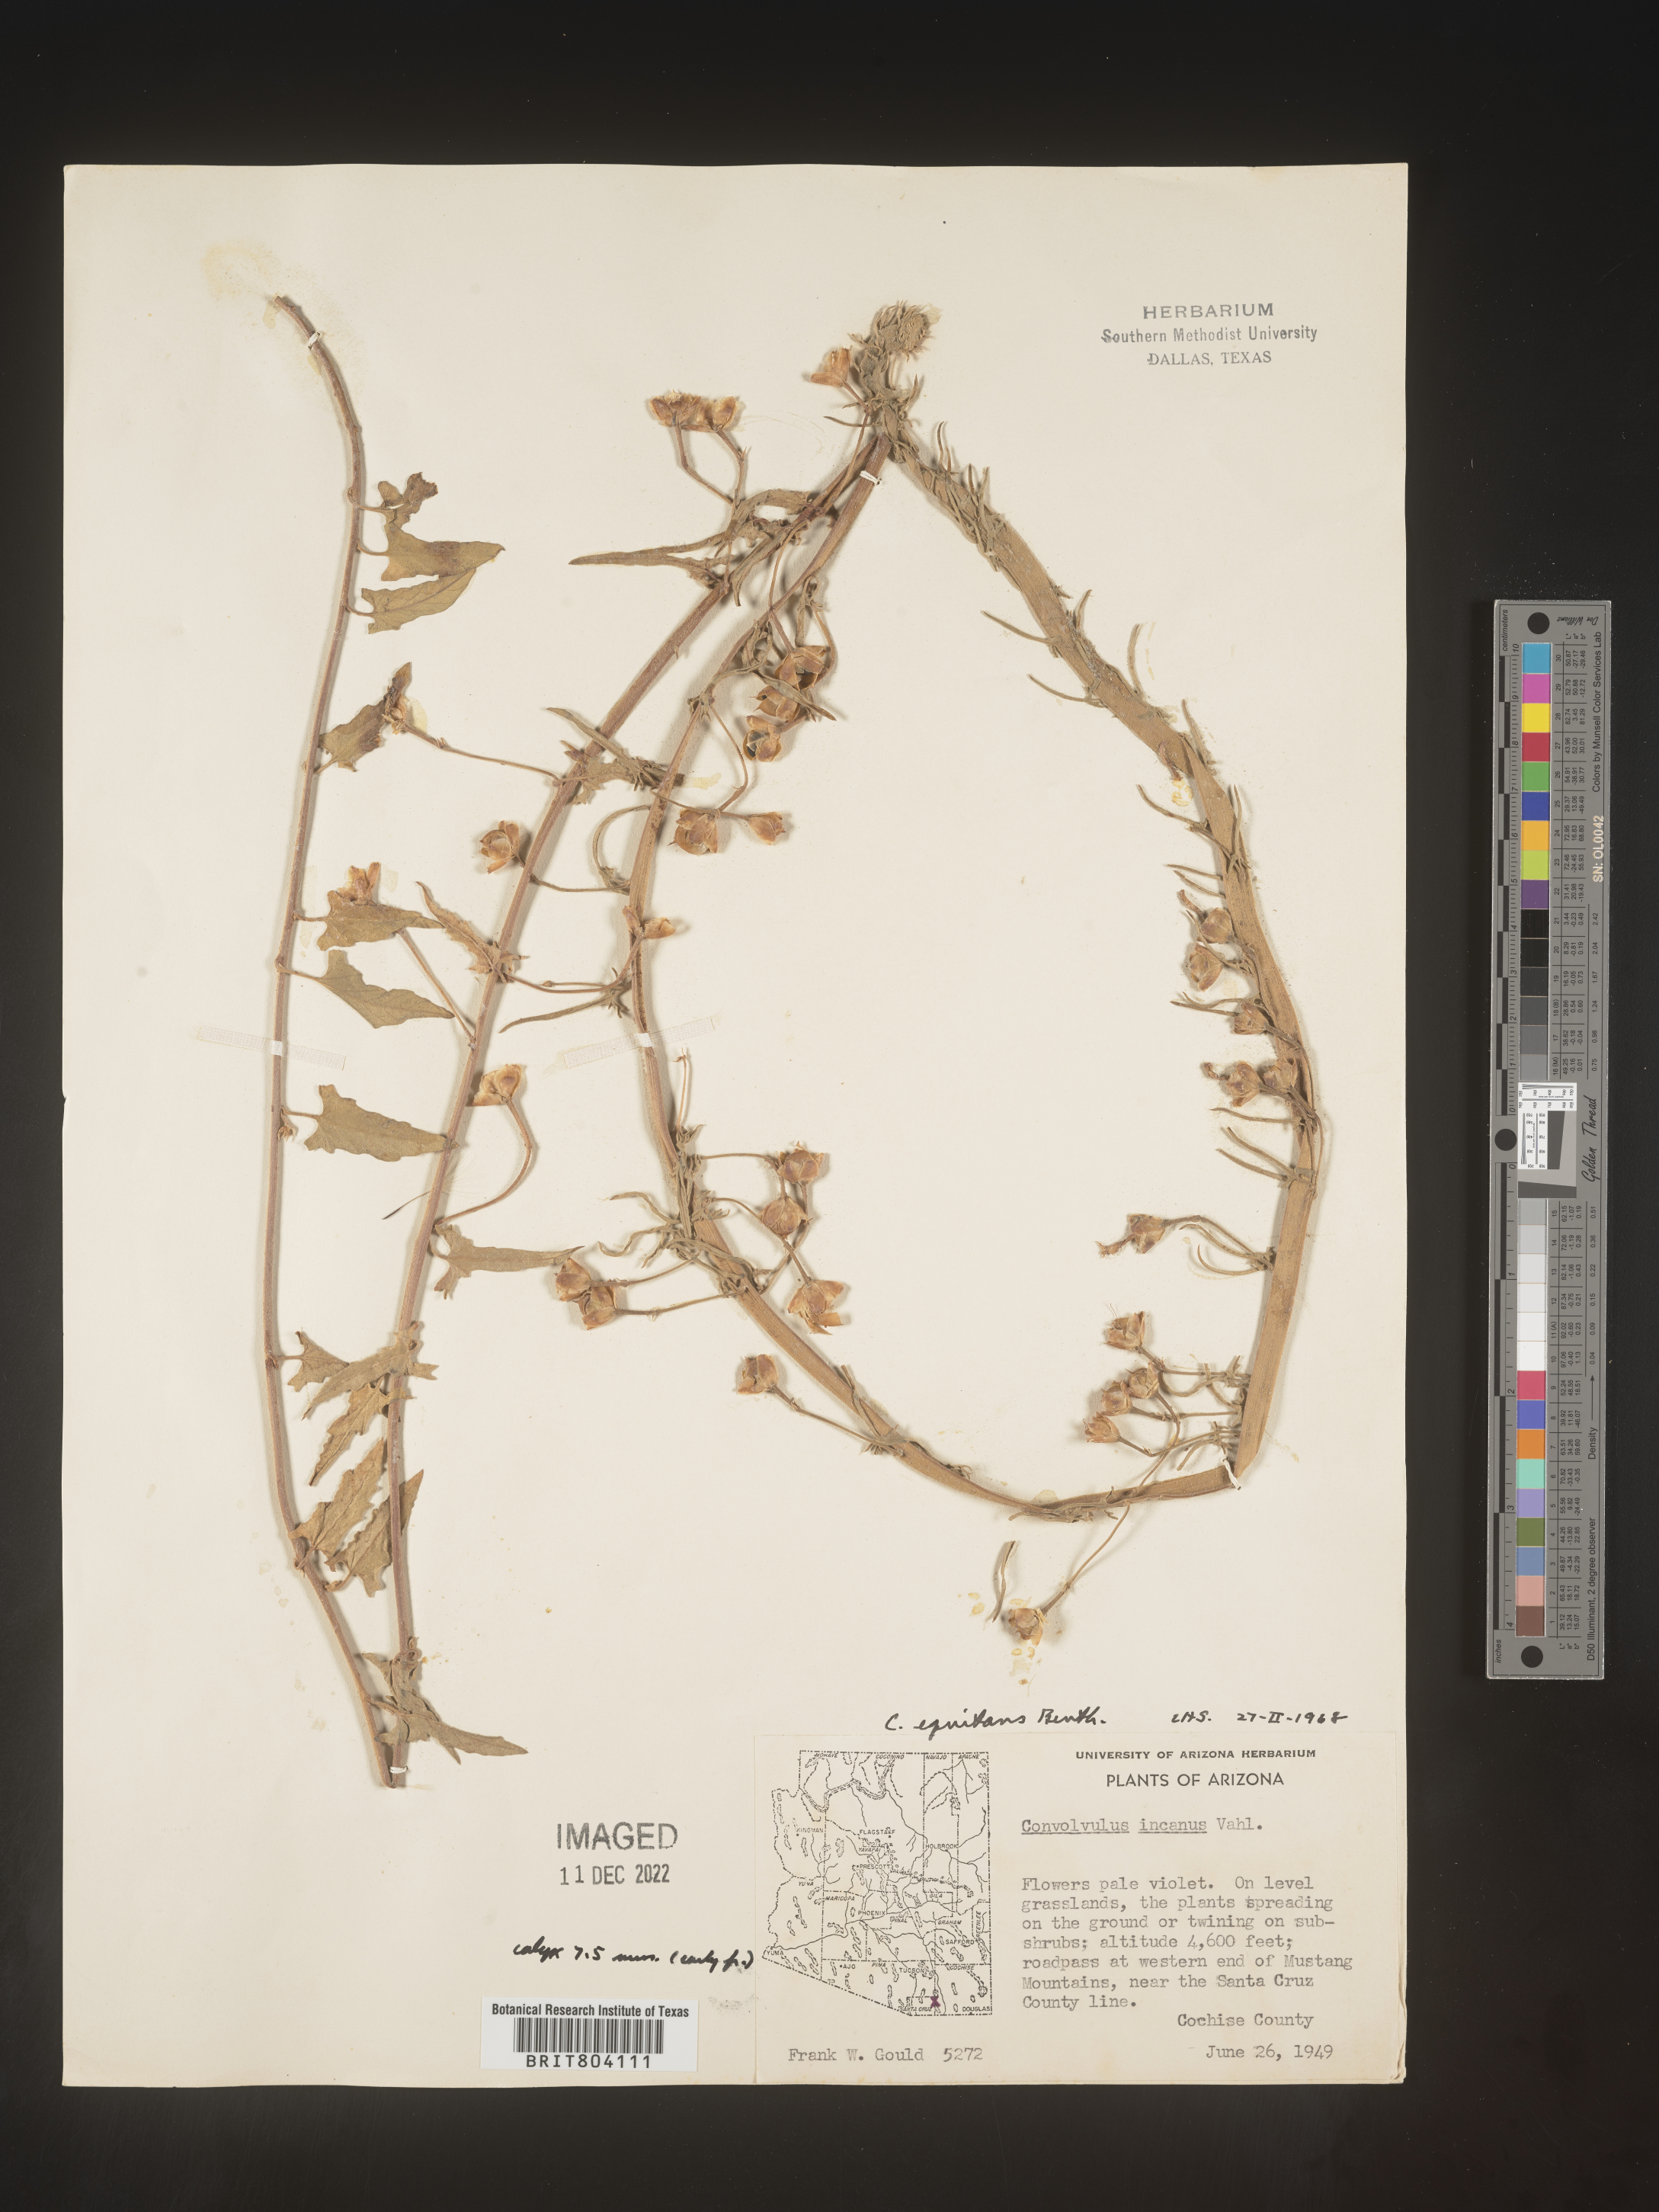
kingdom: Plantae
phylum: Tracheophyta
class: Magnoliopsida
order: Solanales
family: Convolvulaceae
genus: Convolvulus
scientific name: Convolvulus equitans
